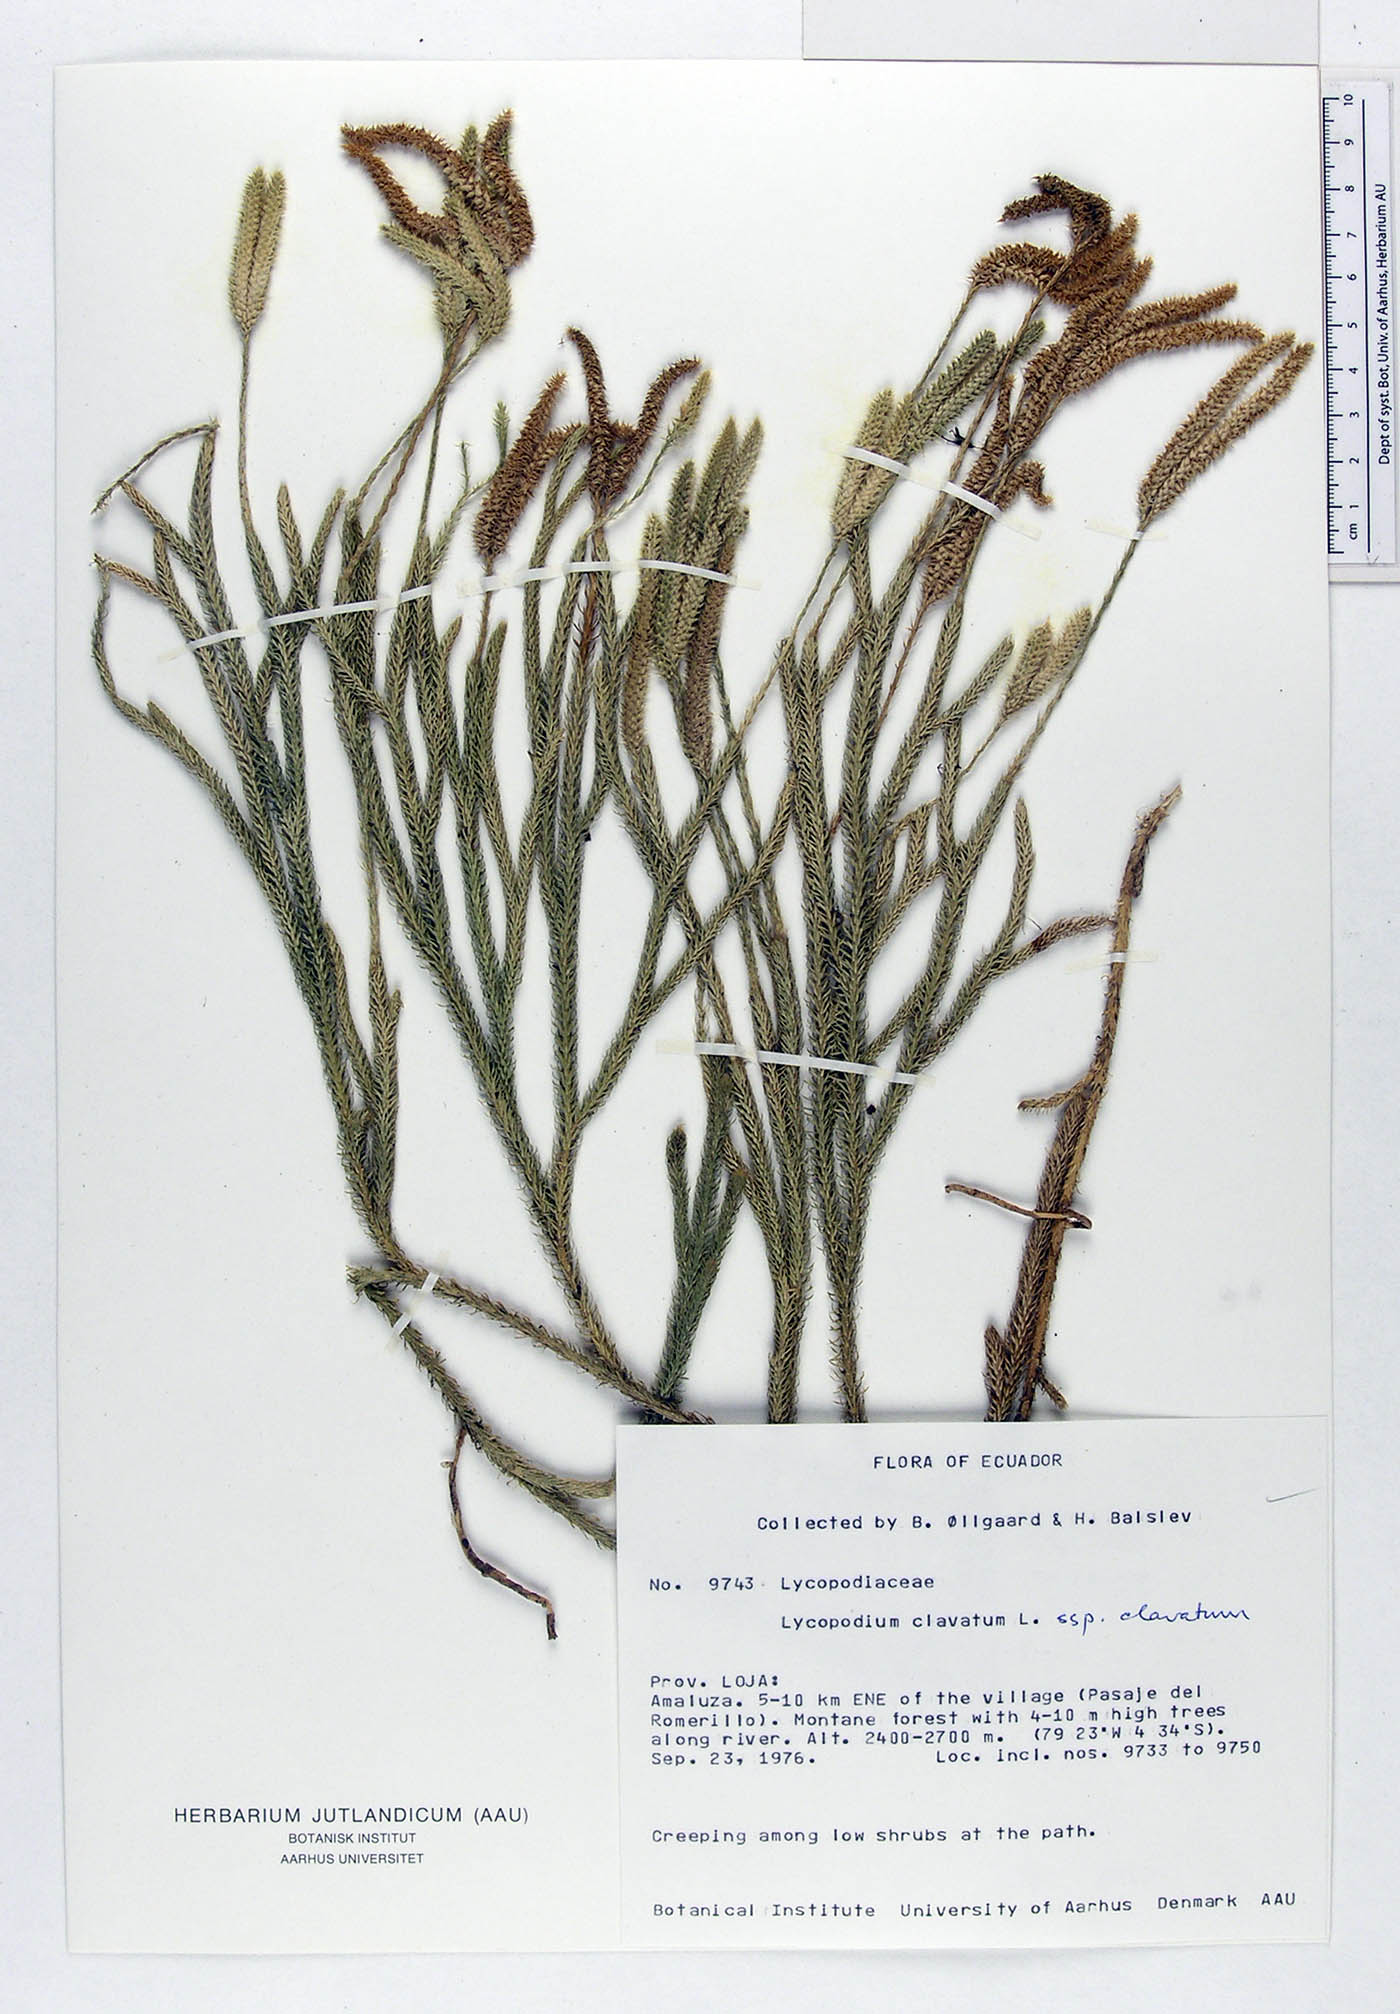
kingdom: Plantae
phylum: Tracheophyta
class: Lycopodiopsida
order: Lycopodiales
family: Lycopodiaceae
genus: Lycopodium
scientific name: Lycopodium clavatum
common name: Stag's-horn clubmoss
